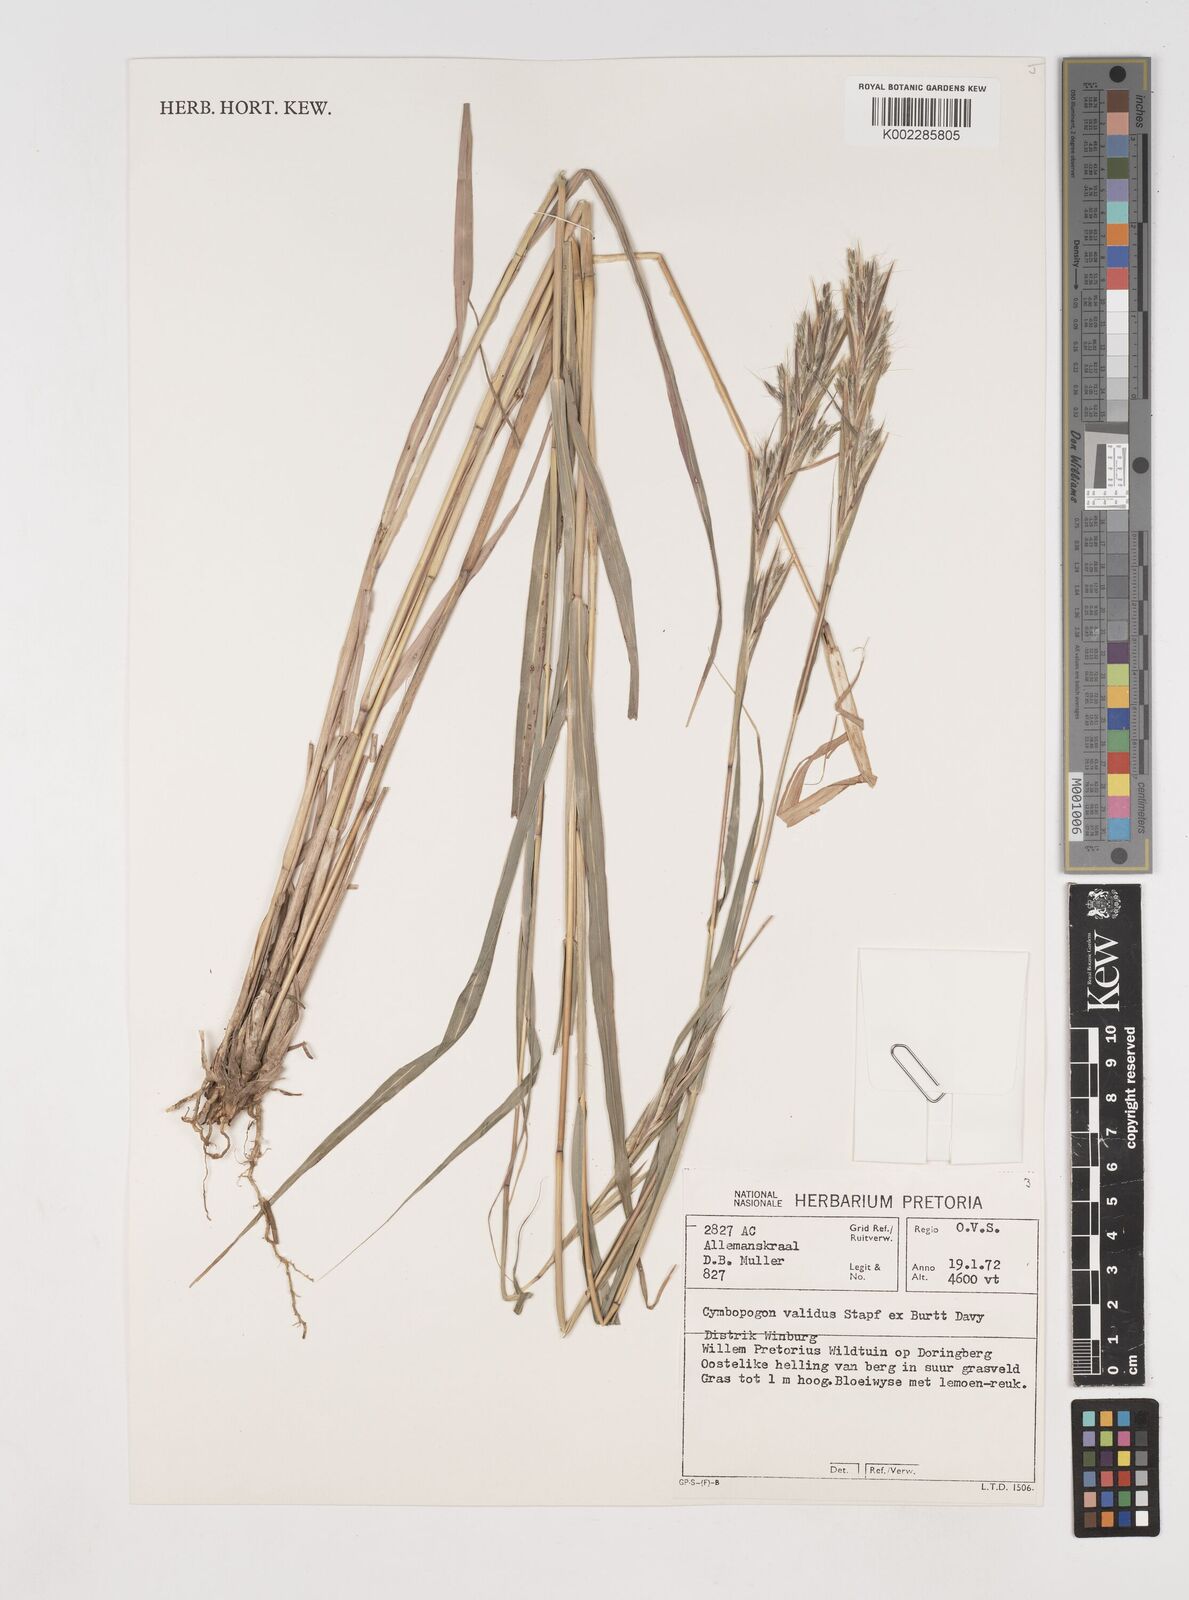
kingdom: Plantae
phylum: Tracheophyta
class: Liliopsida
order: Poales
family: Poaceae
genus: Cymbopogon
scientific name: Cymbopogon nardus
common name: Giant turpentine grass
